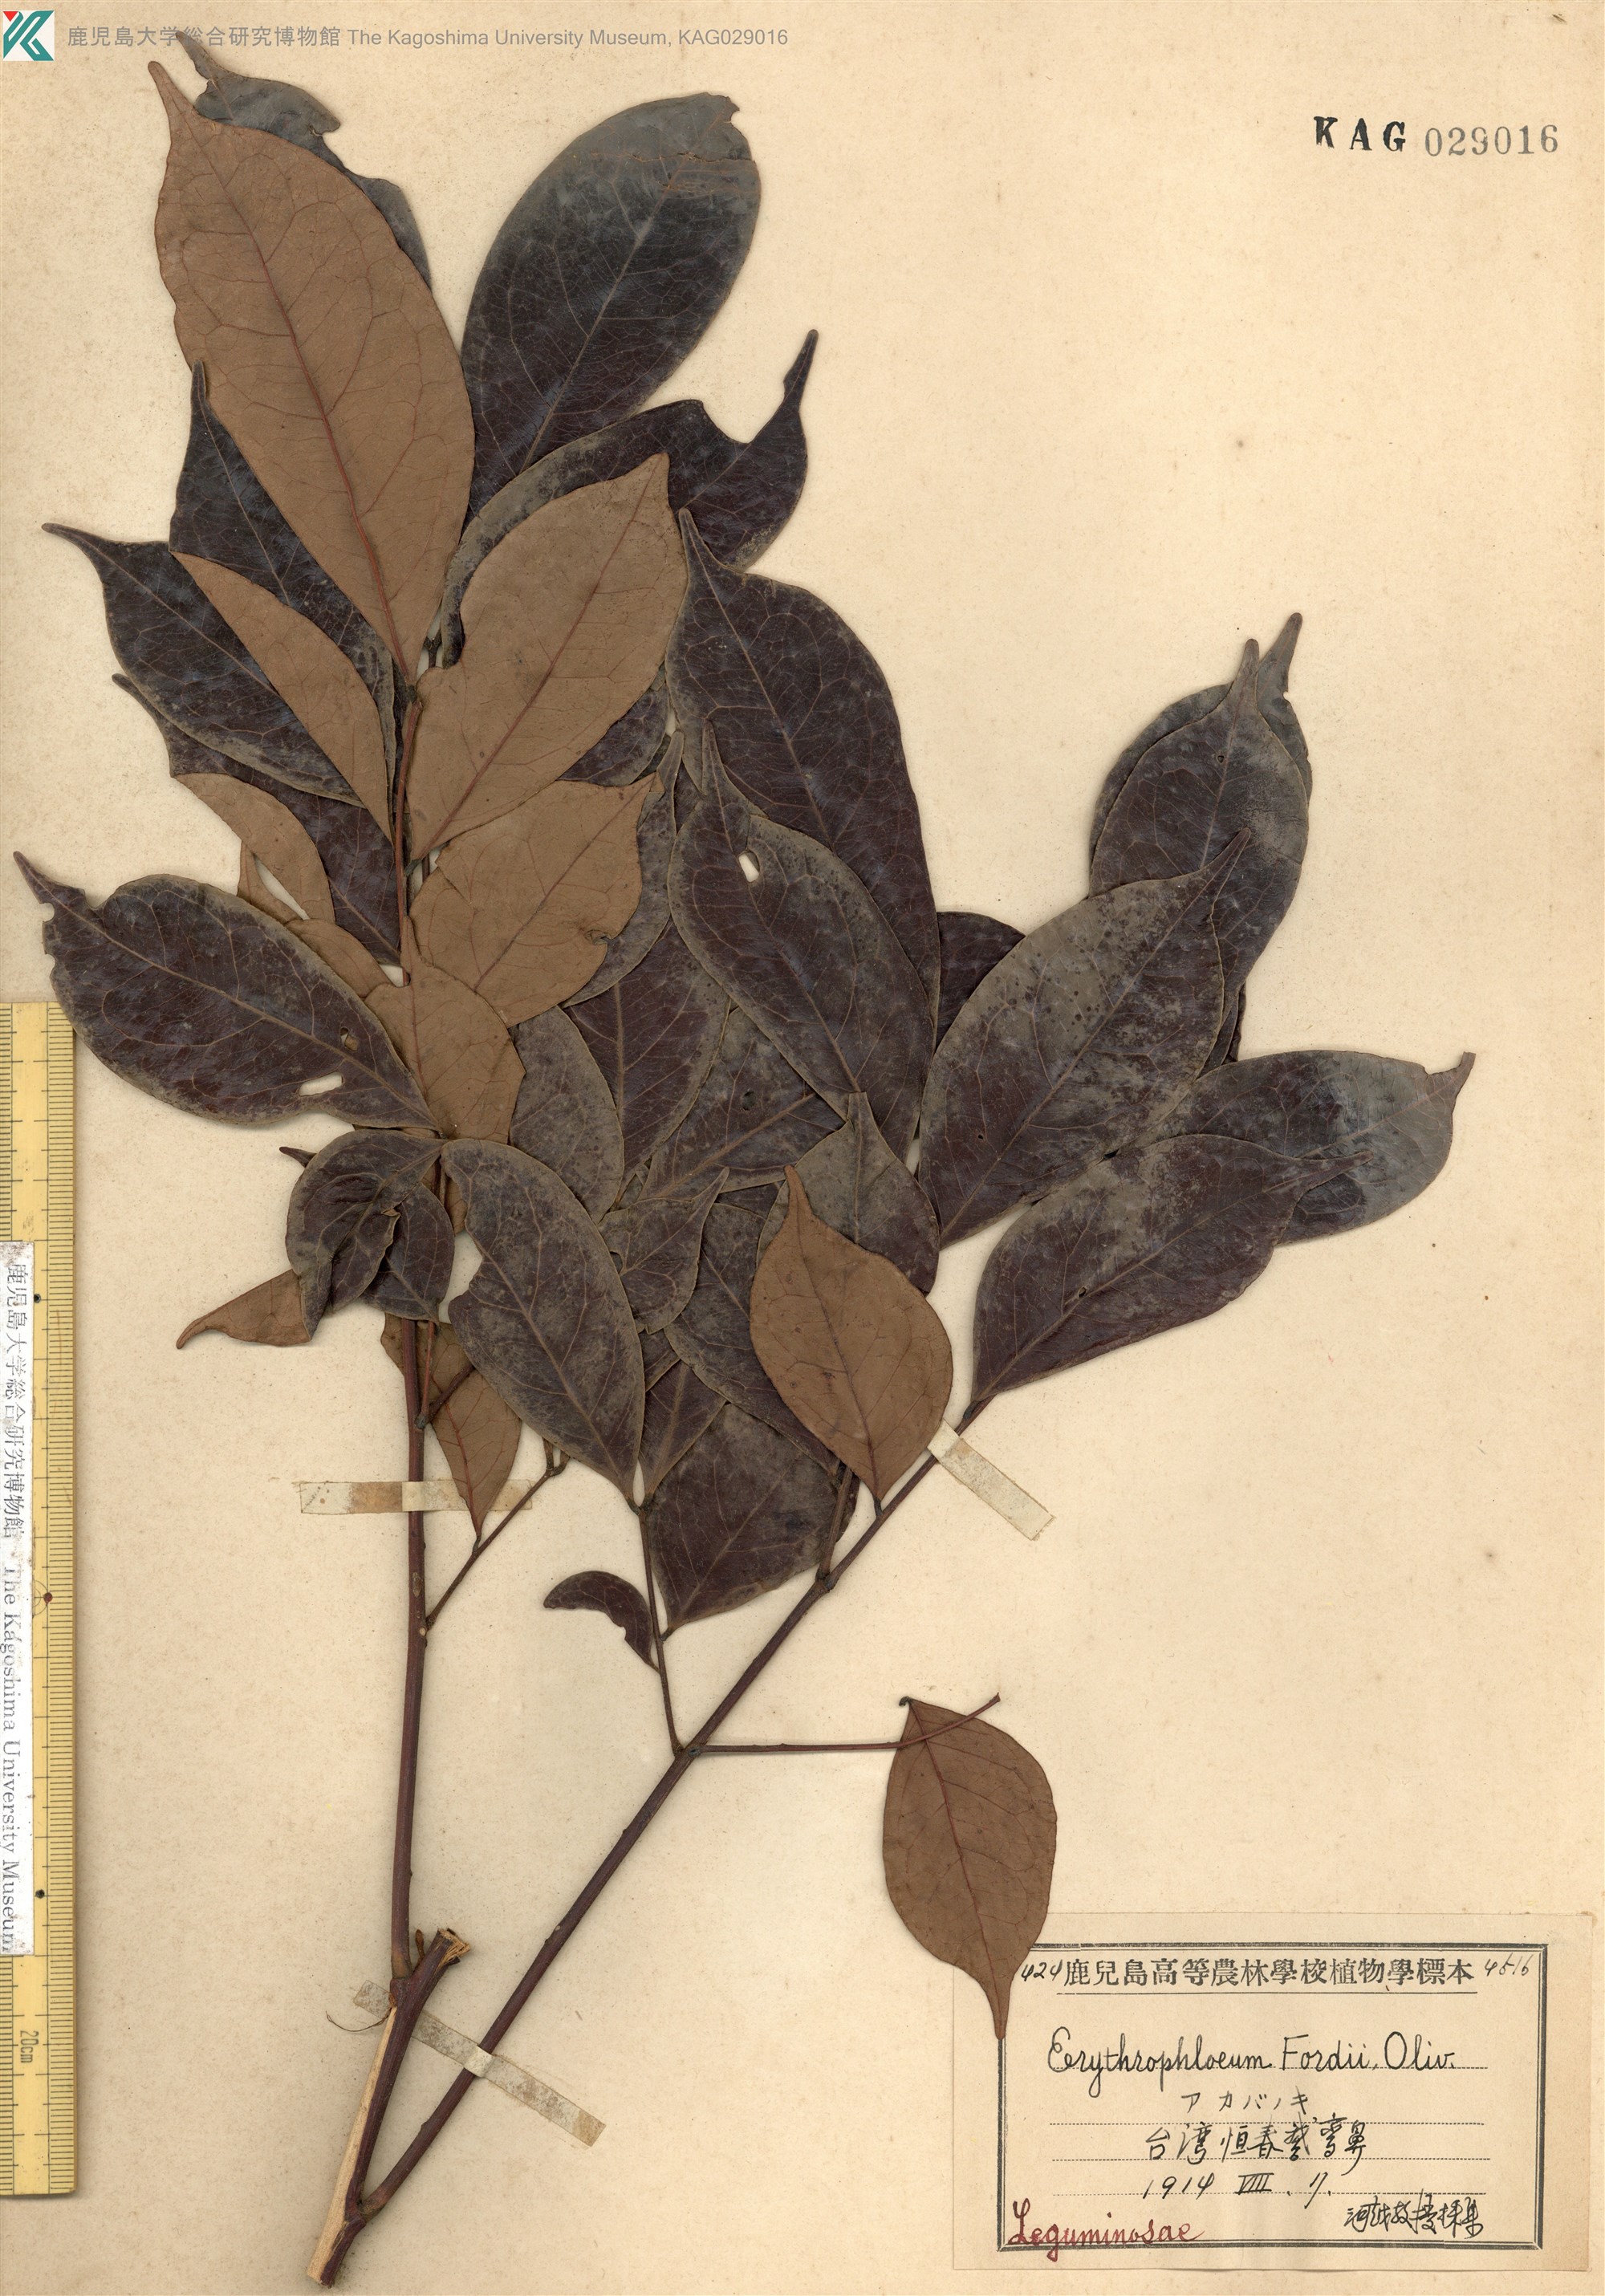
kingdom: Plantae
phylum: Tracheophyta
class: Magnoliopsida
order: Fabales
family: Fabaceae
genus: Archidendron
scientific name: Archidendron lucidum
